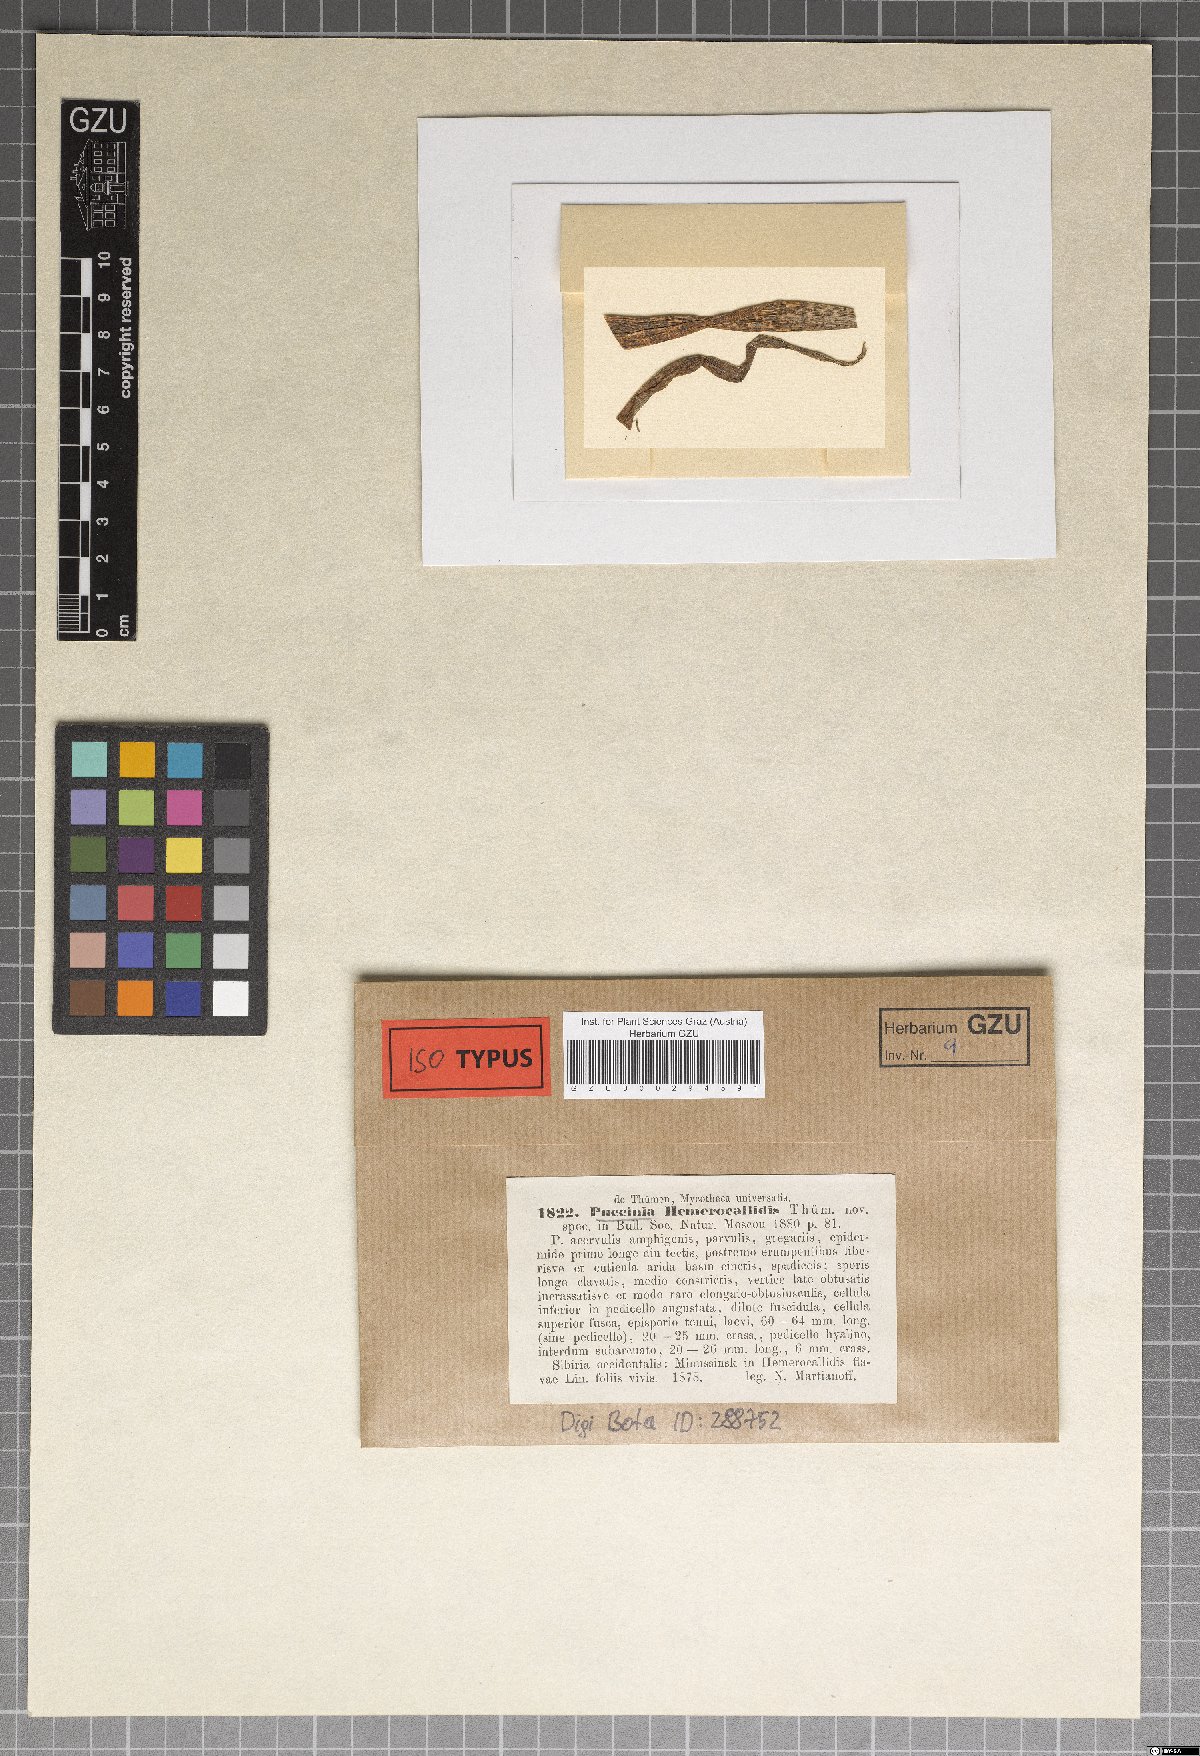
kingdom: Fungi
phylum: Basidiomycota
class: Pucciniomycetes
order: Pucciniales
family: Pucciniaceae
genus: Puccinia
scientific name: Puccinia hemerocallidis
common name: Rust fungus
